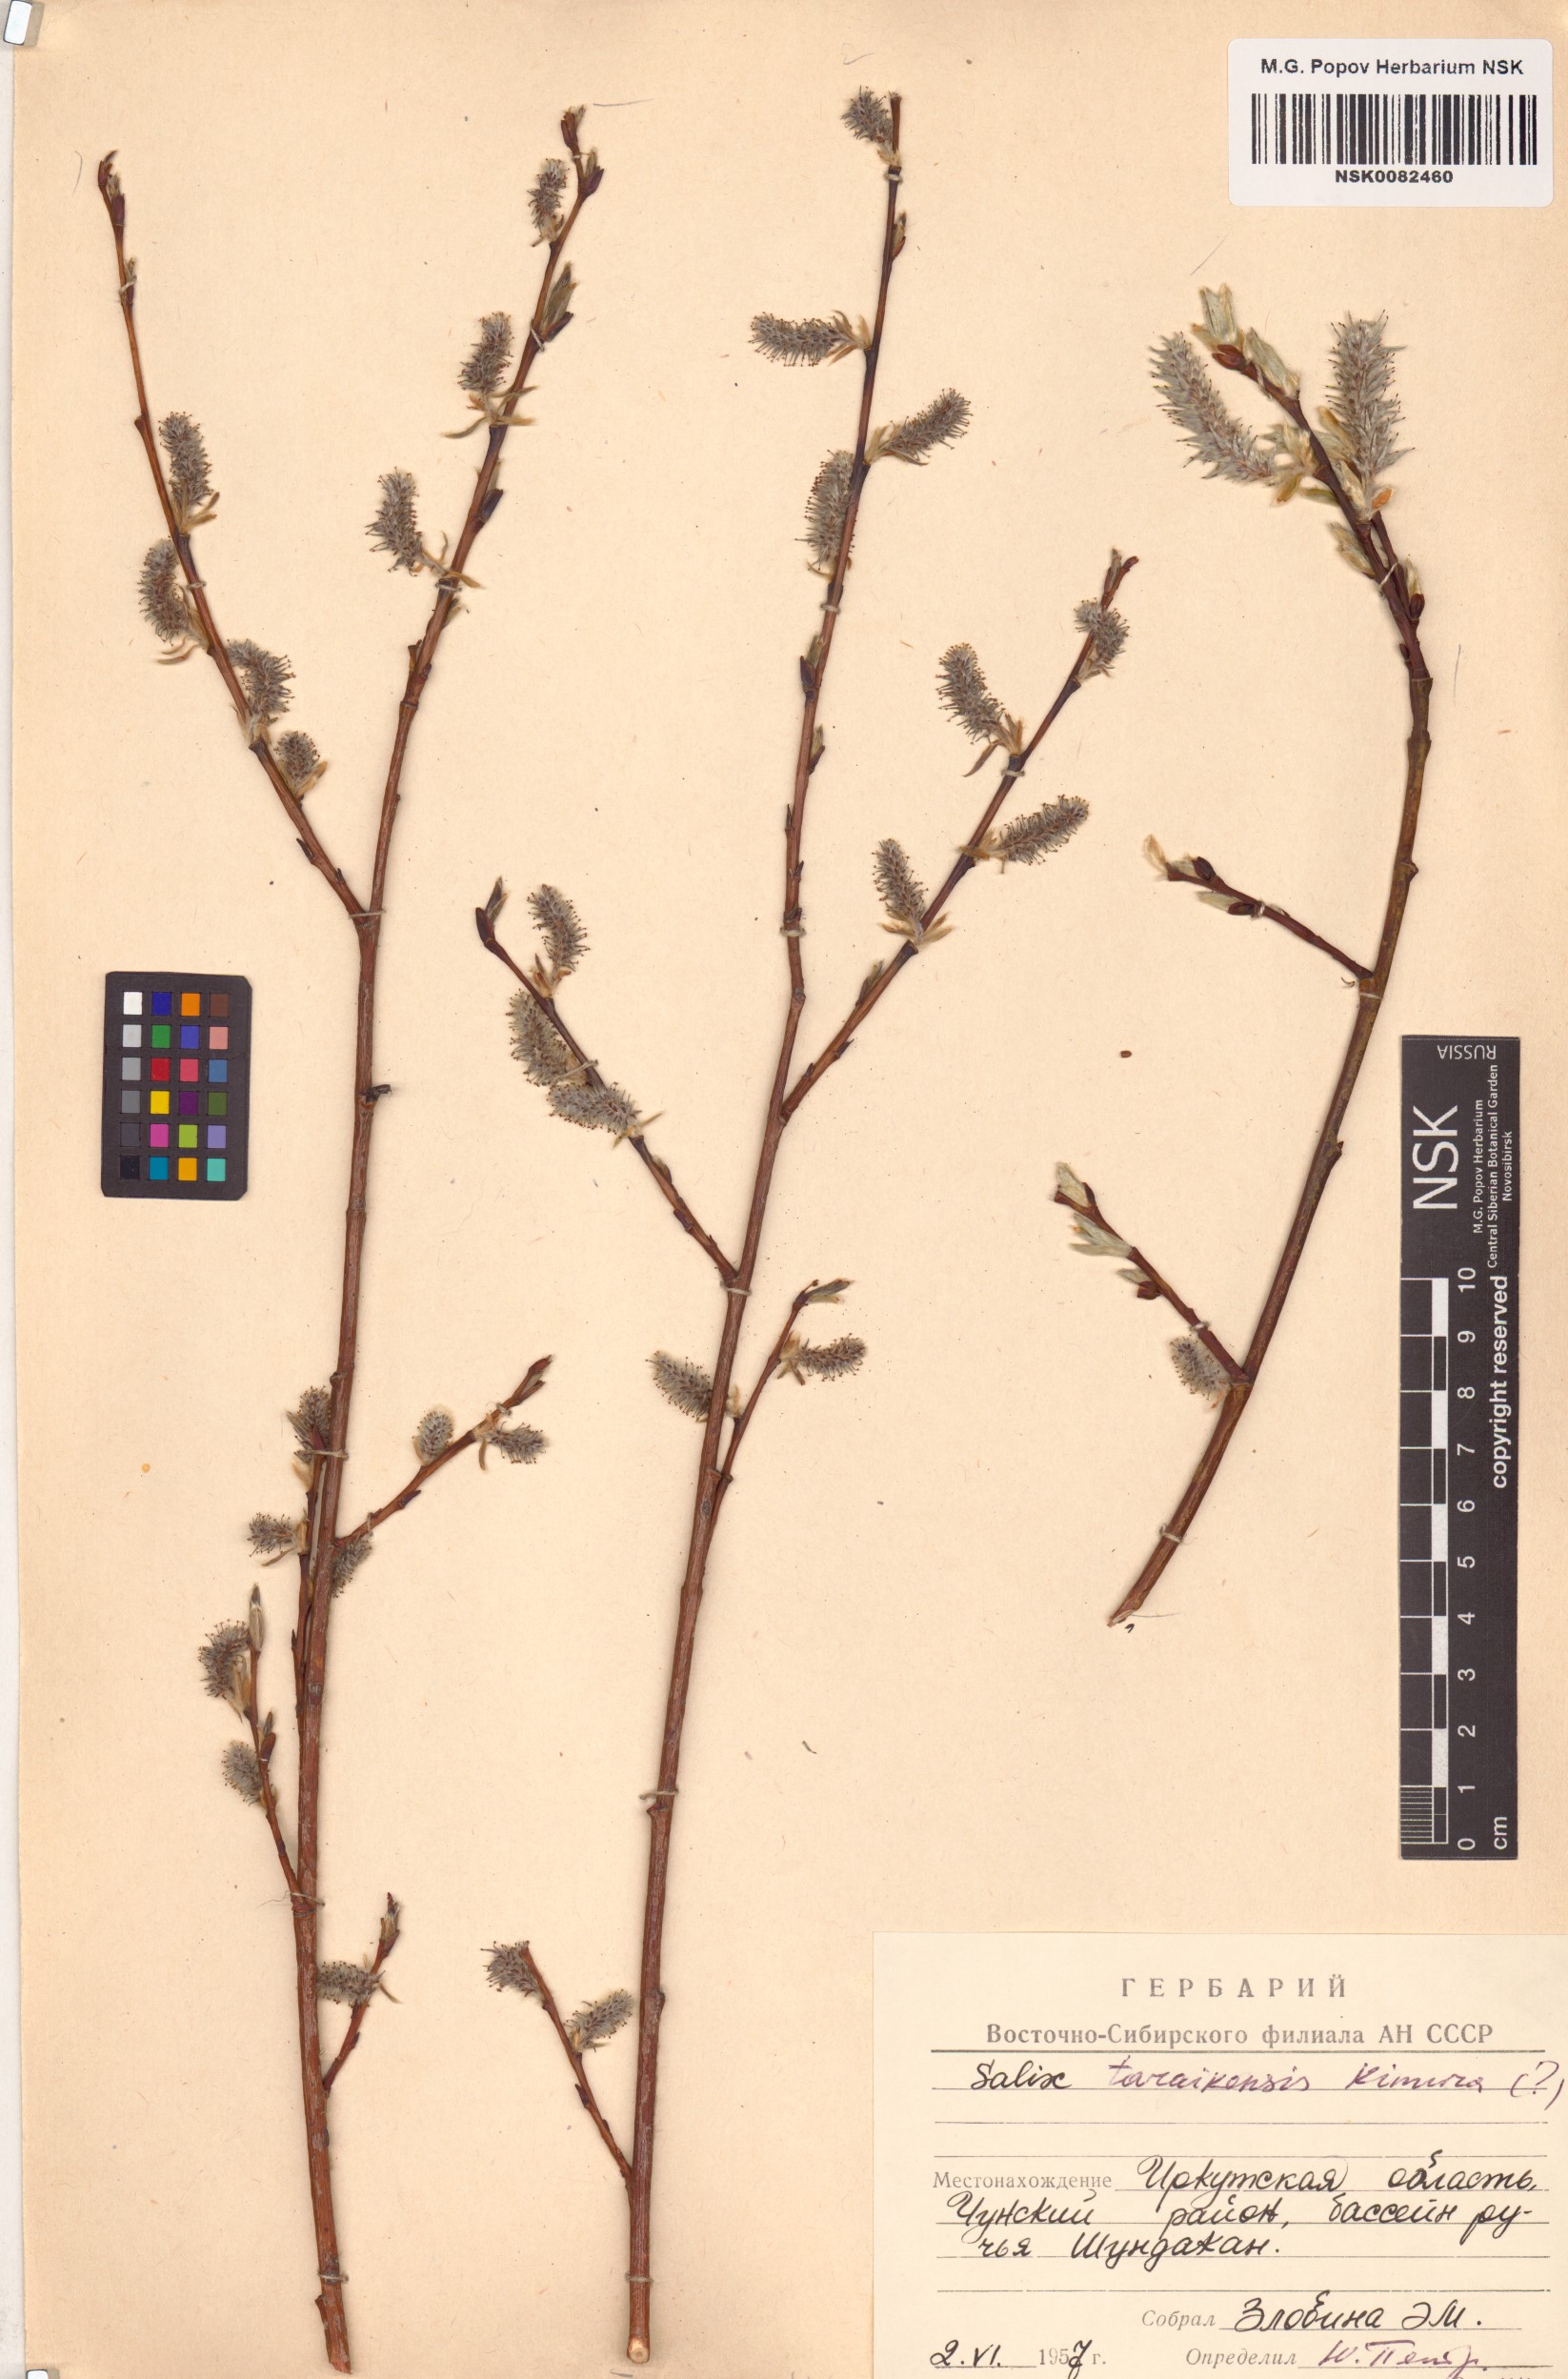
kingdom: Plantae
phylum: Tracheophyta
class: Magnoliopsida
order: Malpighiales
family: Salicaceae
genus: Salix
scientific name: Salix taraikensis
